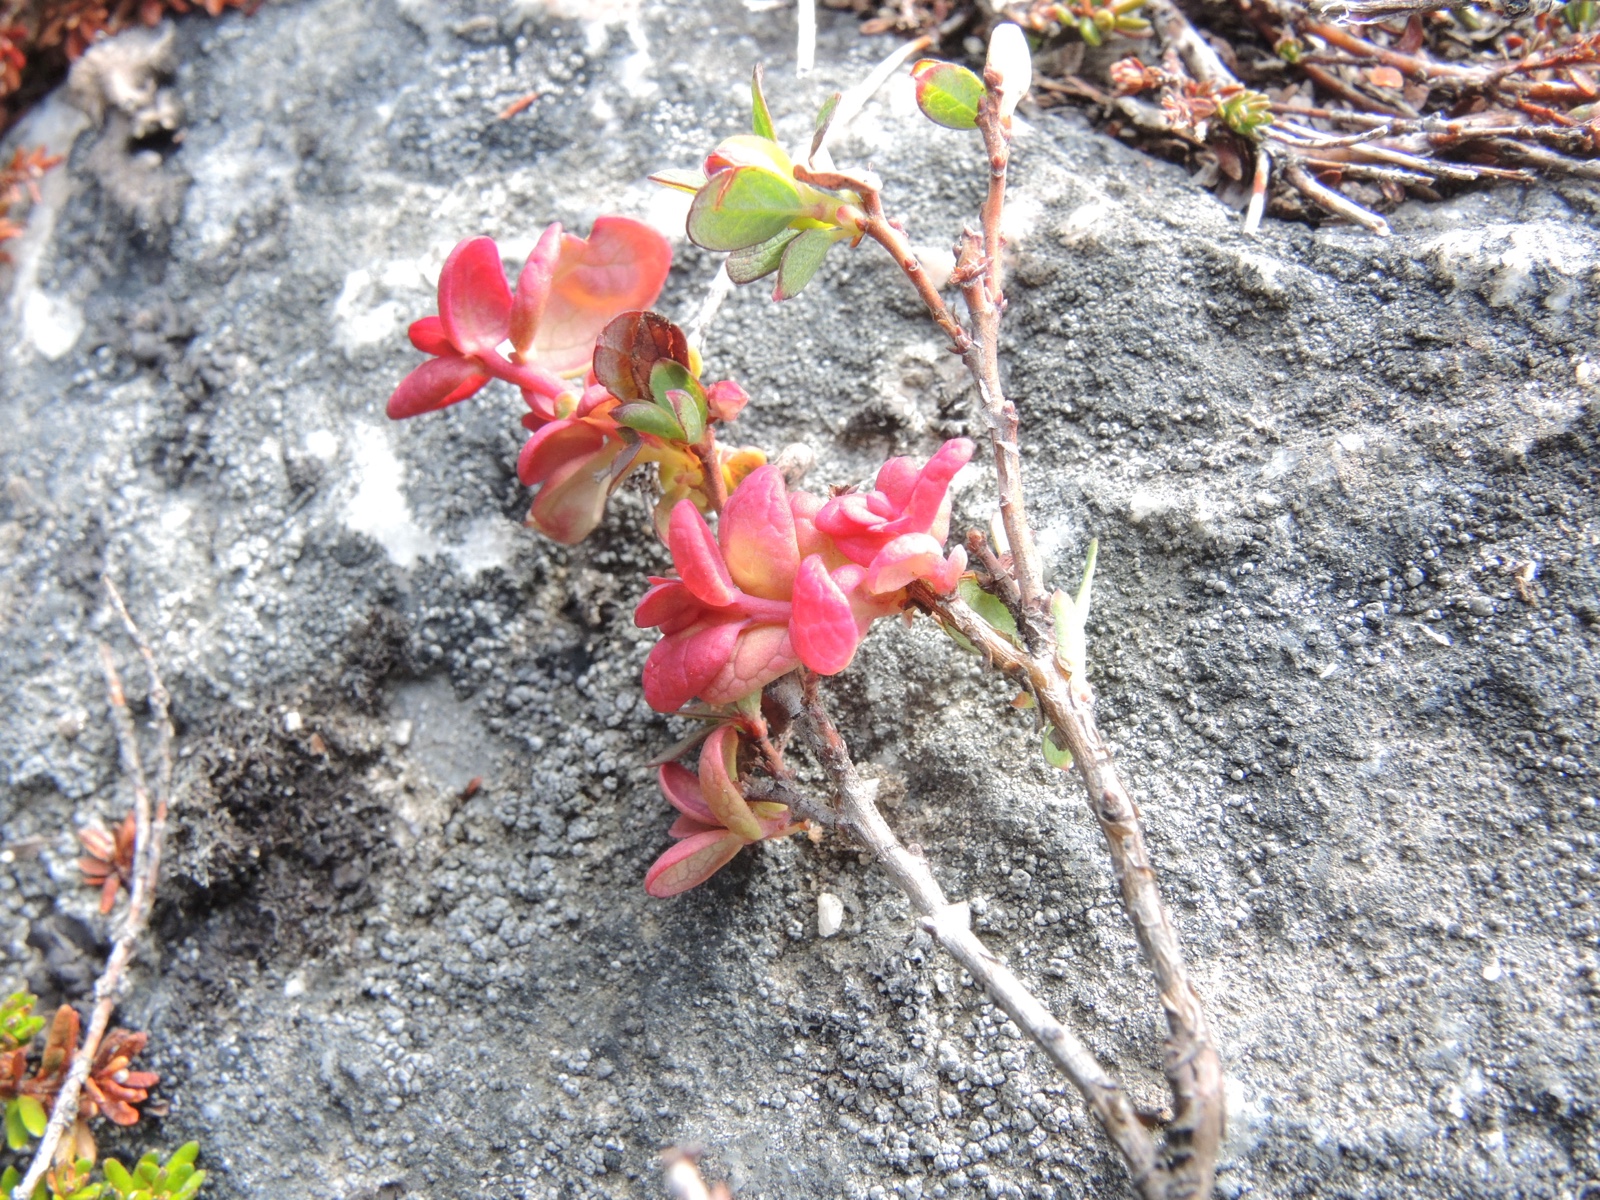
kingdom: Fungi
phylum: Basidiomycota
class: Exobasidiomycetes
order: Exobasidiales
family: Exobasidiaceae
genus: Exobasidium
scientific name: Exobasidium vaccinii-uliginosi
